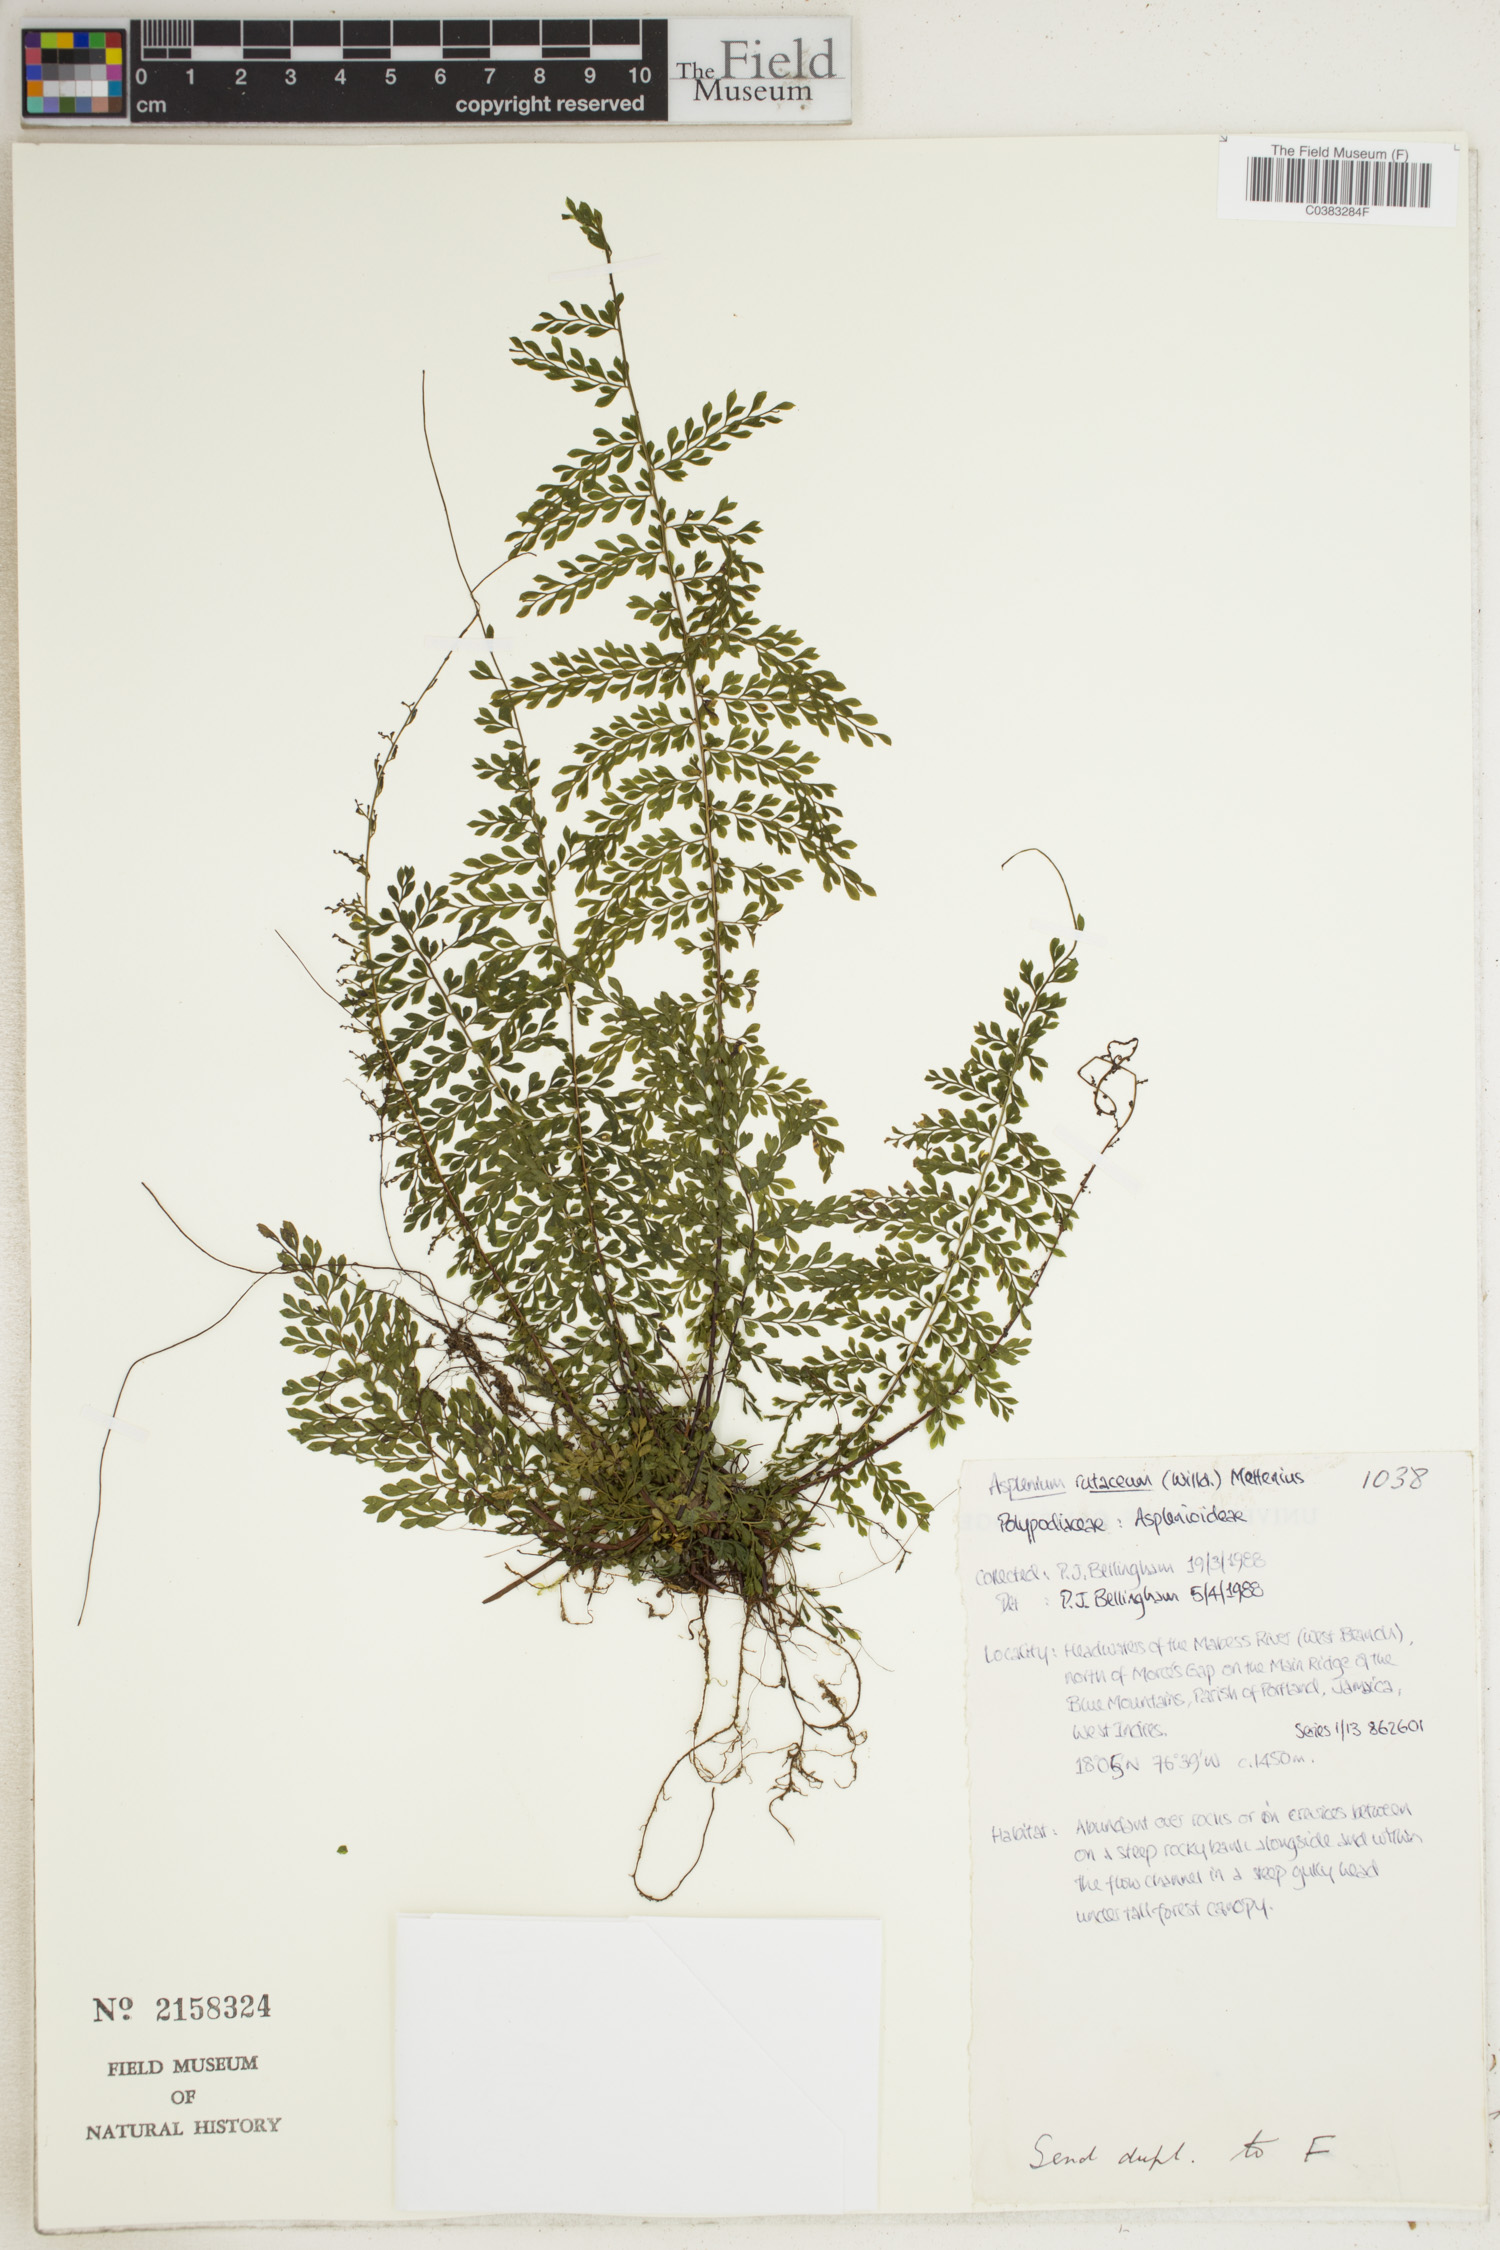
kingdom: Plantae
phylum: Tracheophyta
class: Polypodiopsida
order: Polypodiales
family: Aspleniaceae
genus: Asplenium
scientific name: Asplenium rutaceum
